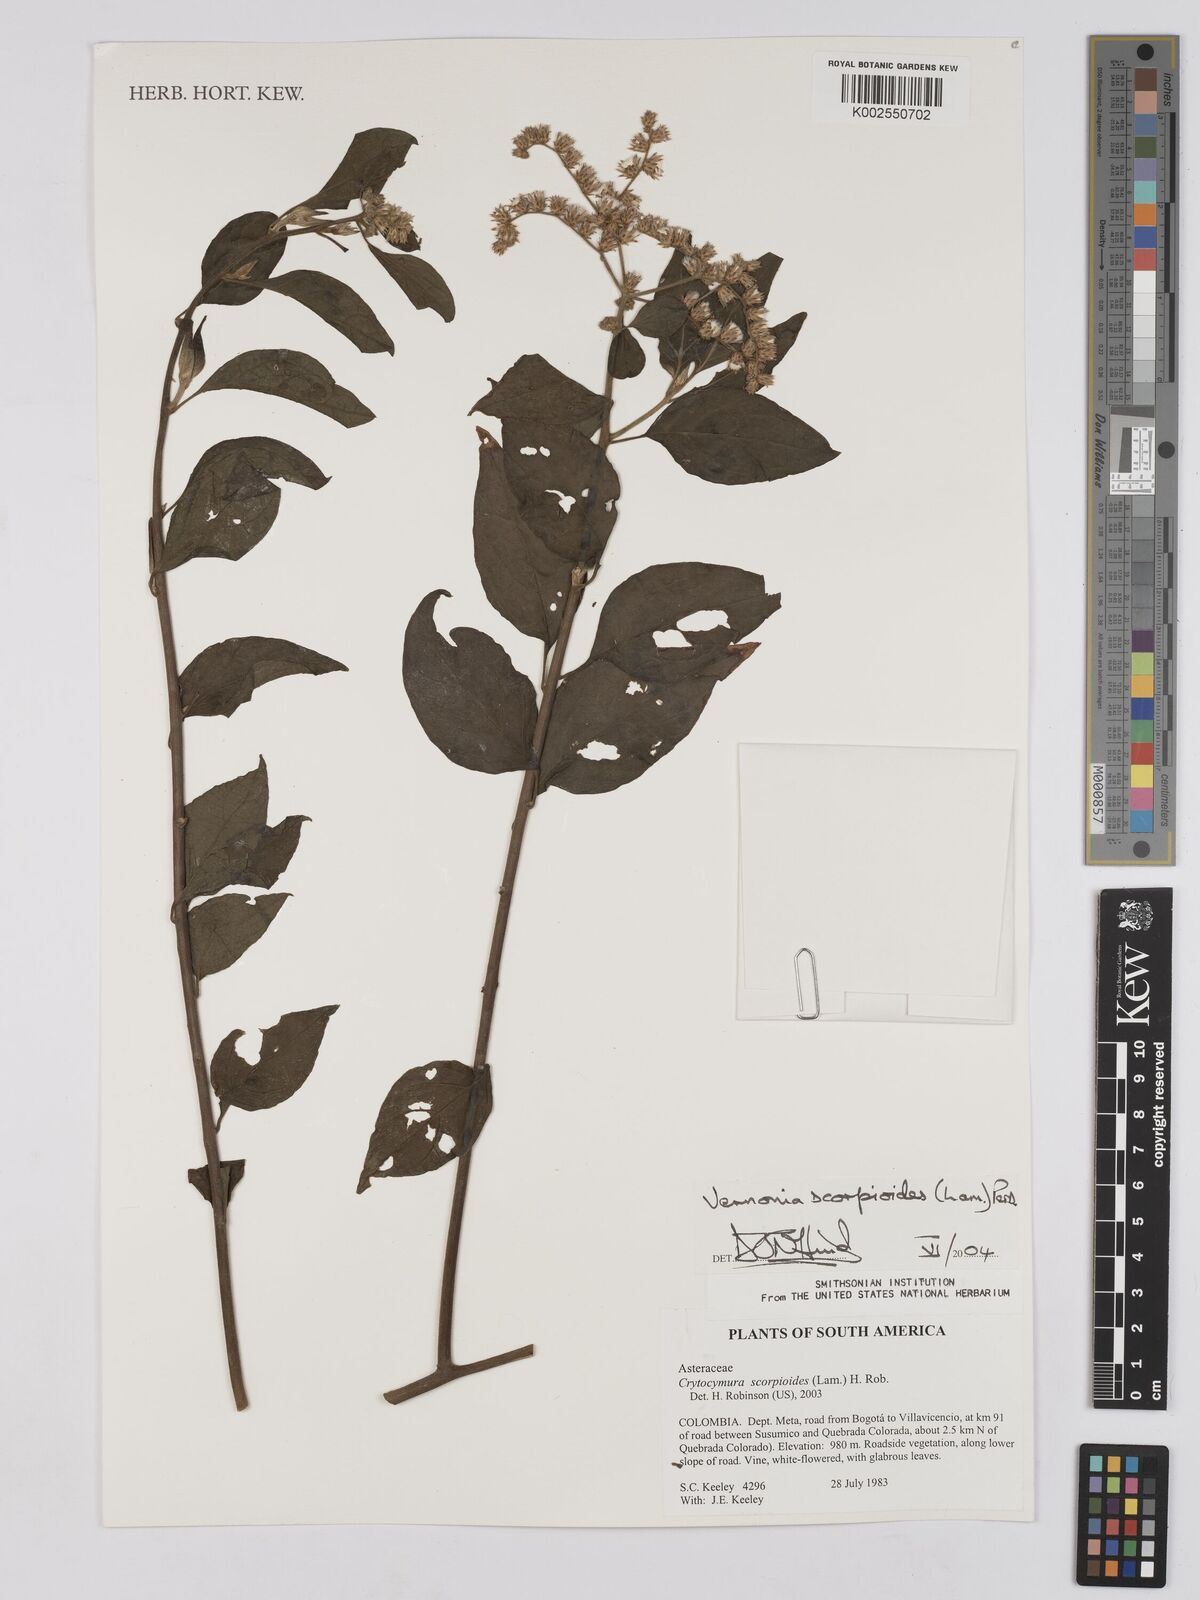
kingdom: Plantae
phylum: Tracheophyta
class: Magnoliopsida
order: Asterales
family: Asteraceae
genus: Cyrtocymura
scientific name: Cyrtocymura scorpioides
